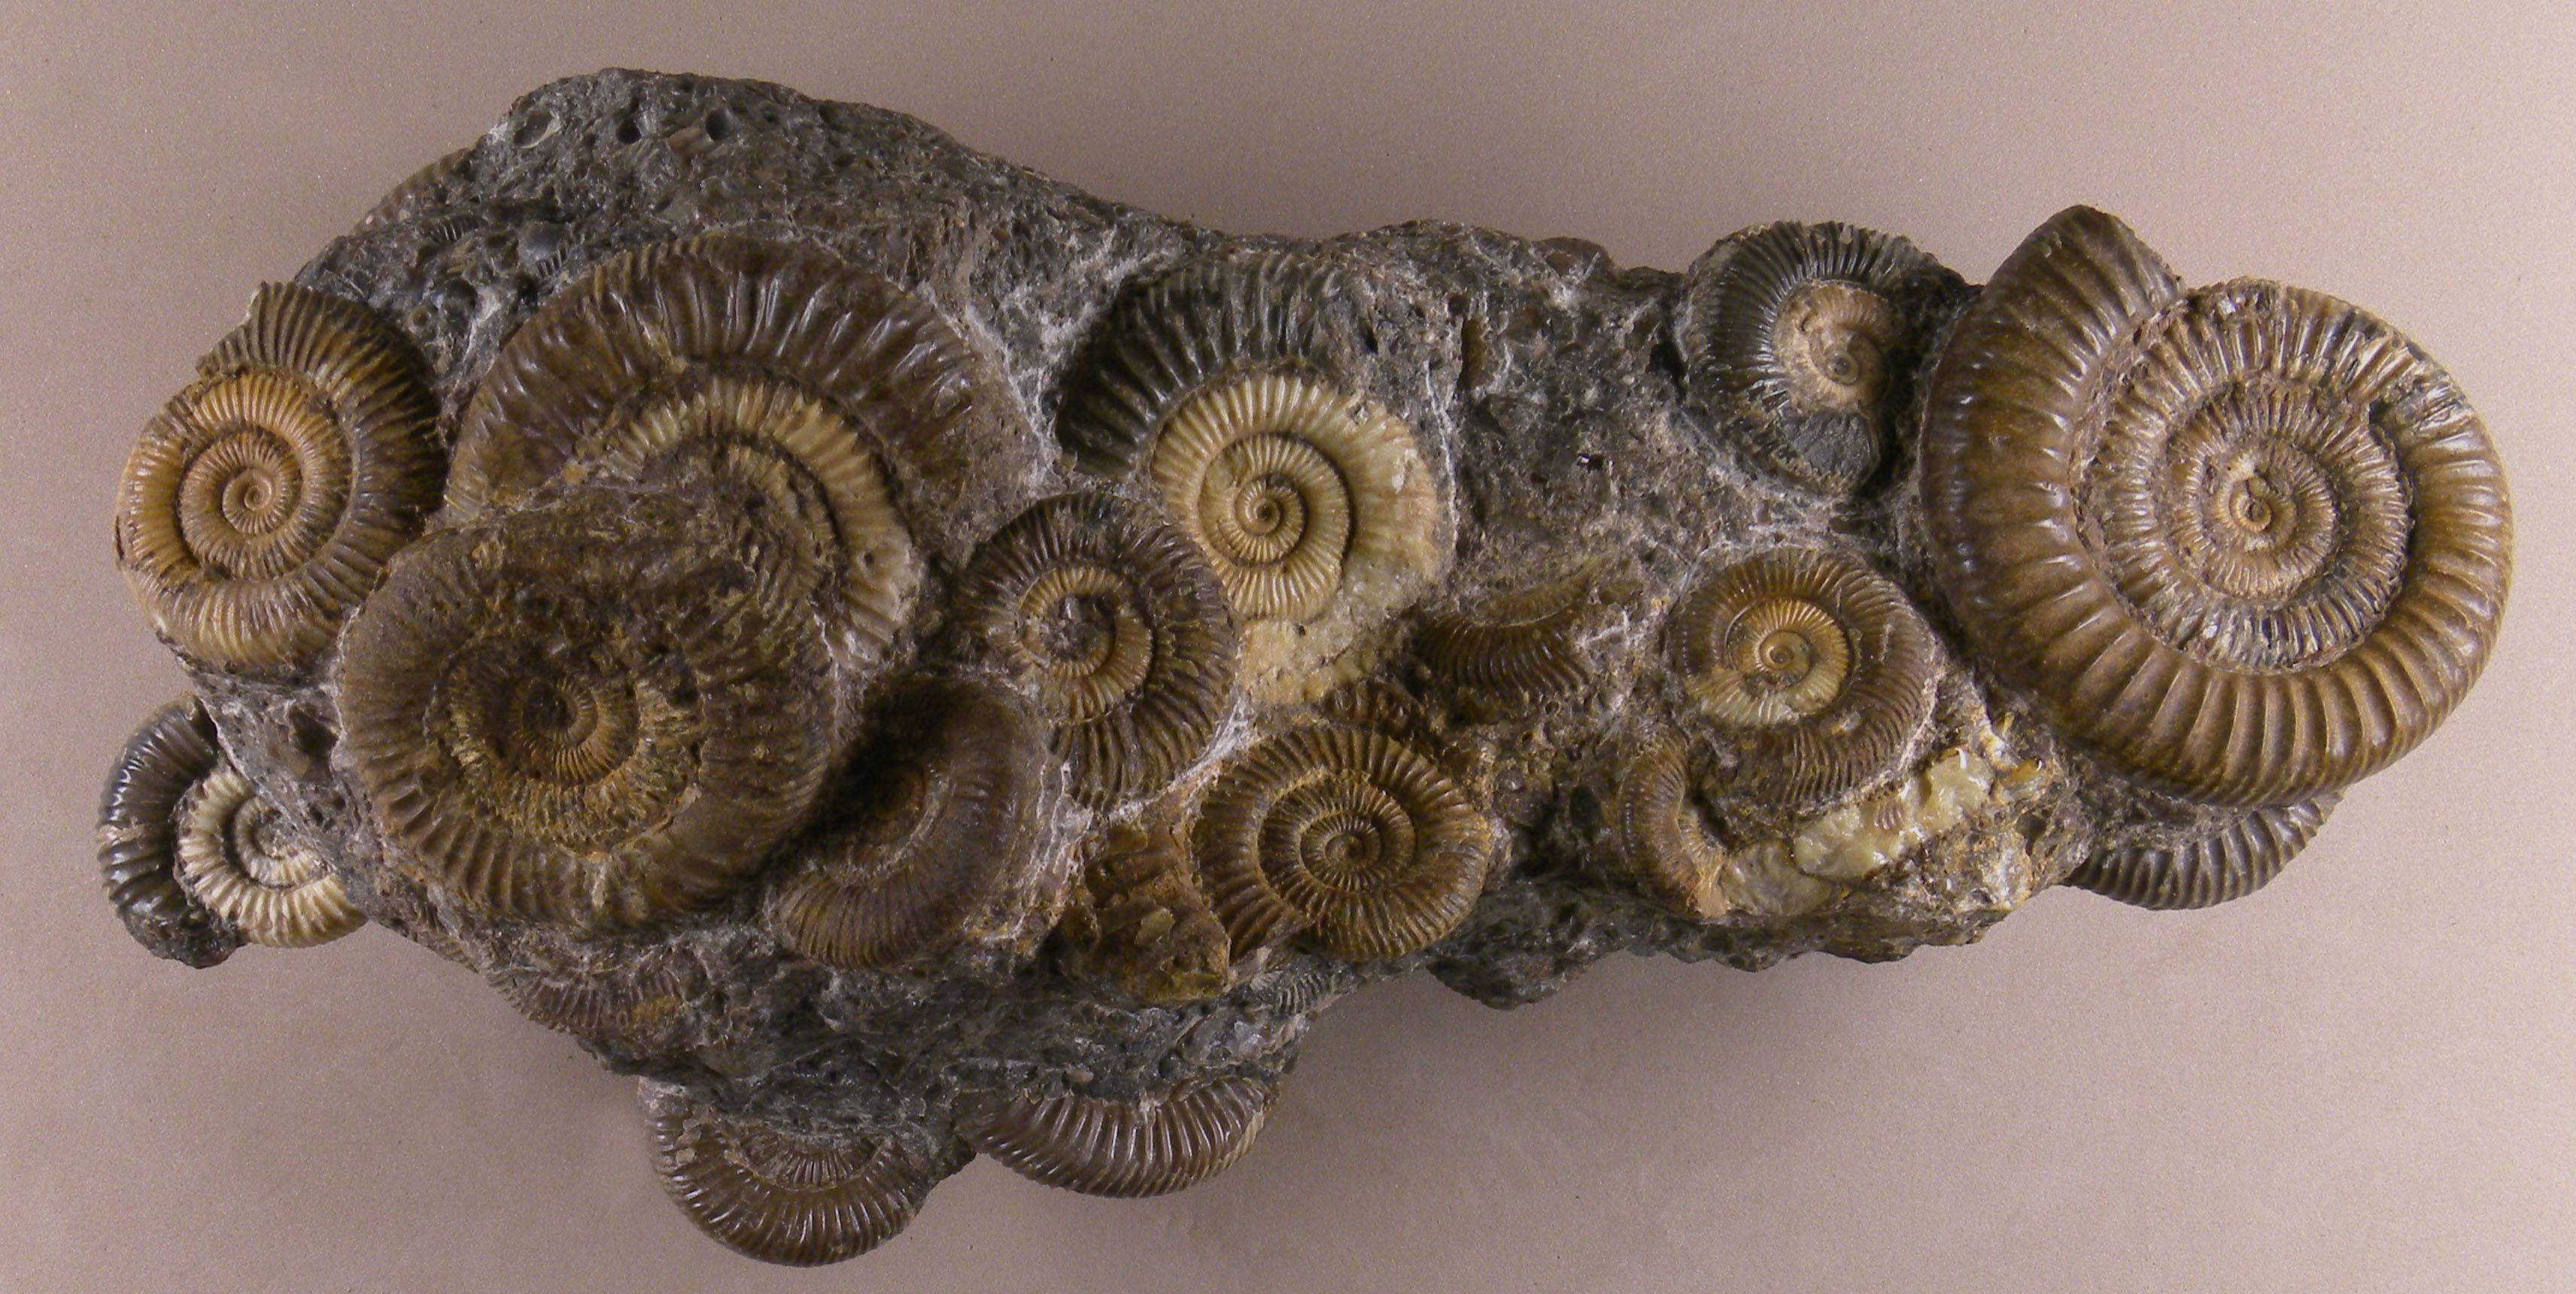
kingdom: Animalia
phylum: Mollusca
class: Cephalopoda
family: Dactylioceratidae
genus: Dactylioceras
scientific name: Dactylioceras
